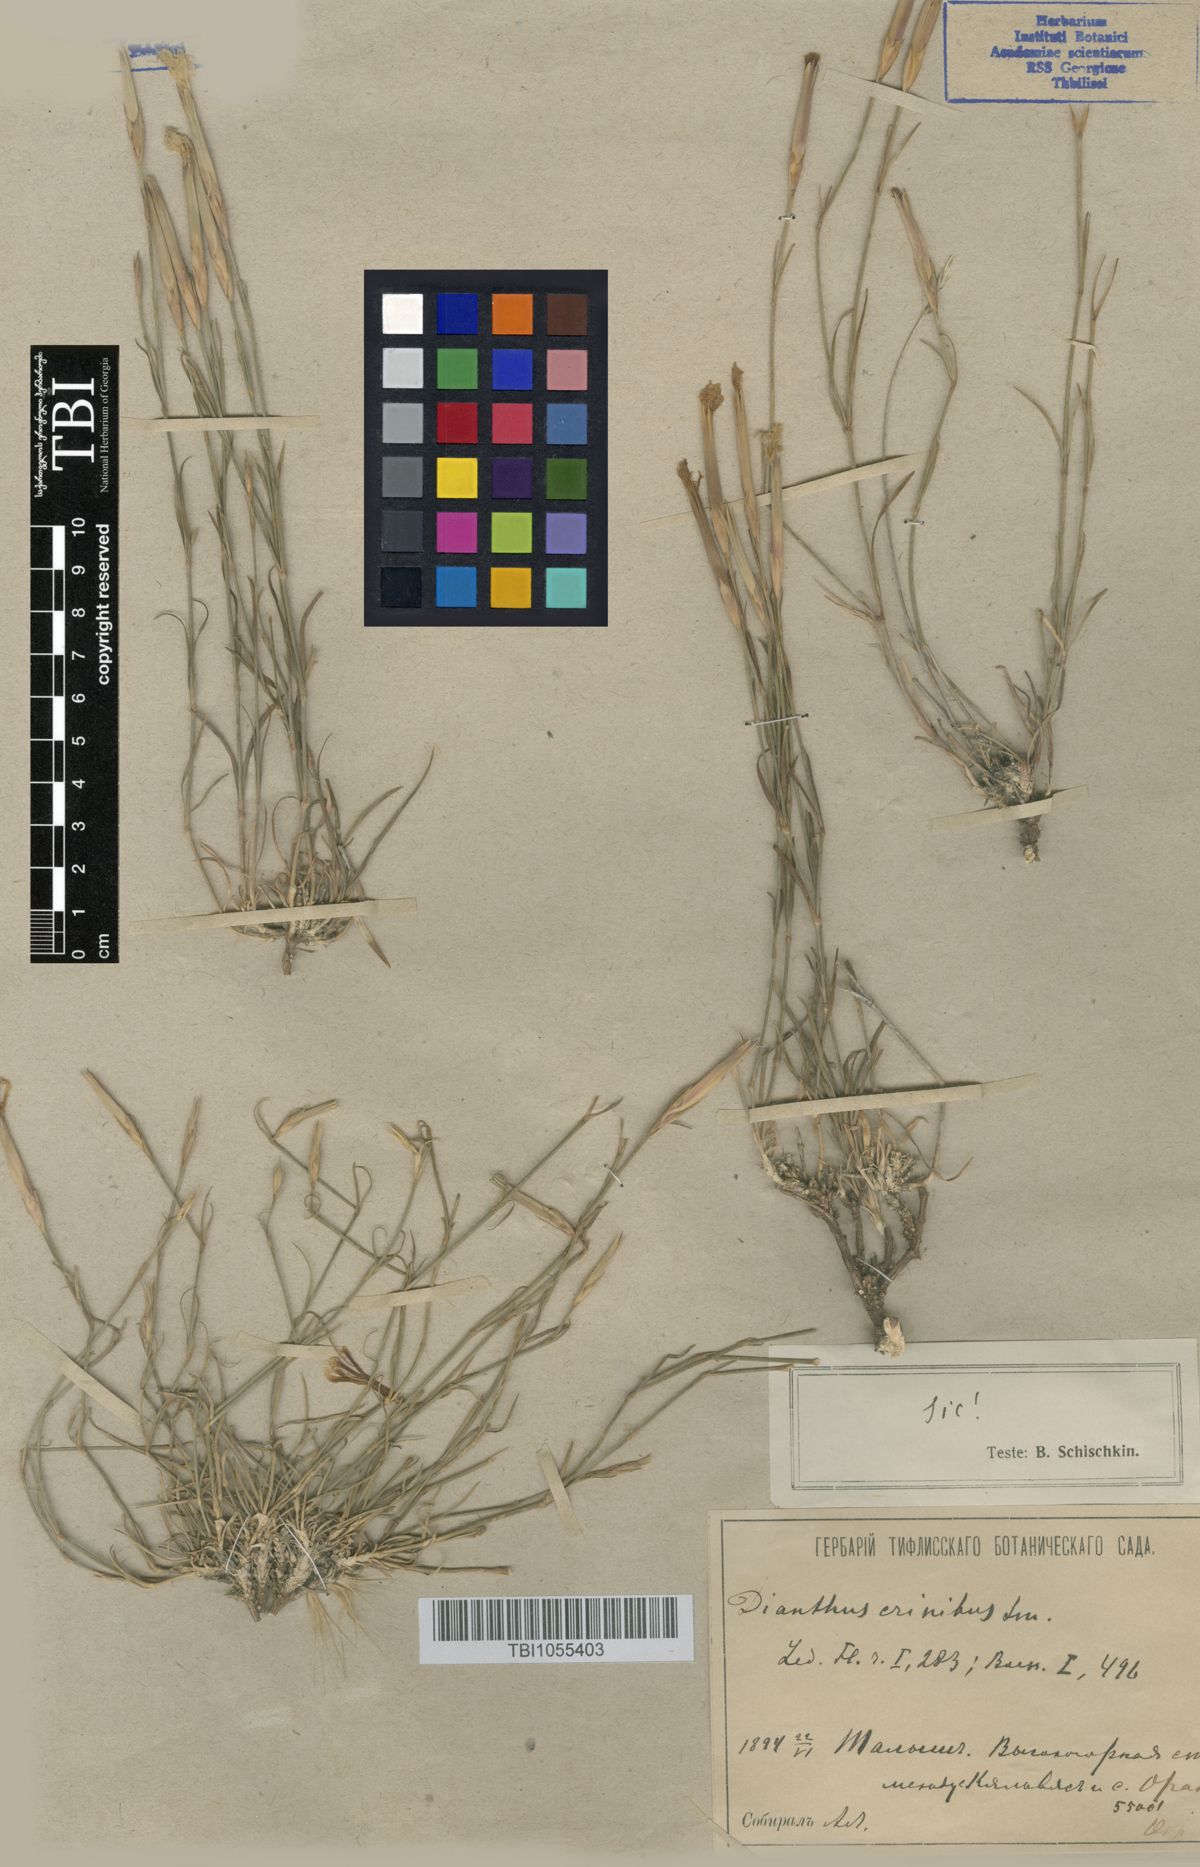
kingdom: Plantae
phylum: Tracheophyta
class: Magnoliopsida
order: Caryophyllales
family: Caryophyllaceae
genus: Dianthus
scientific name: Dianthus crinitus
